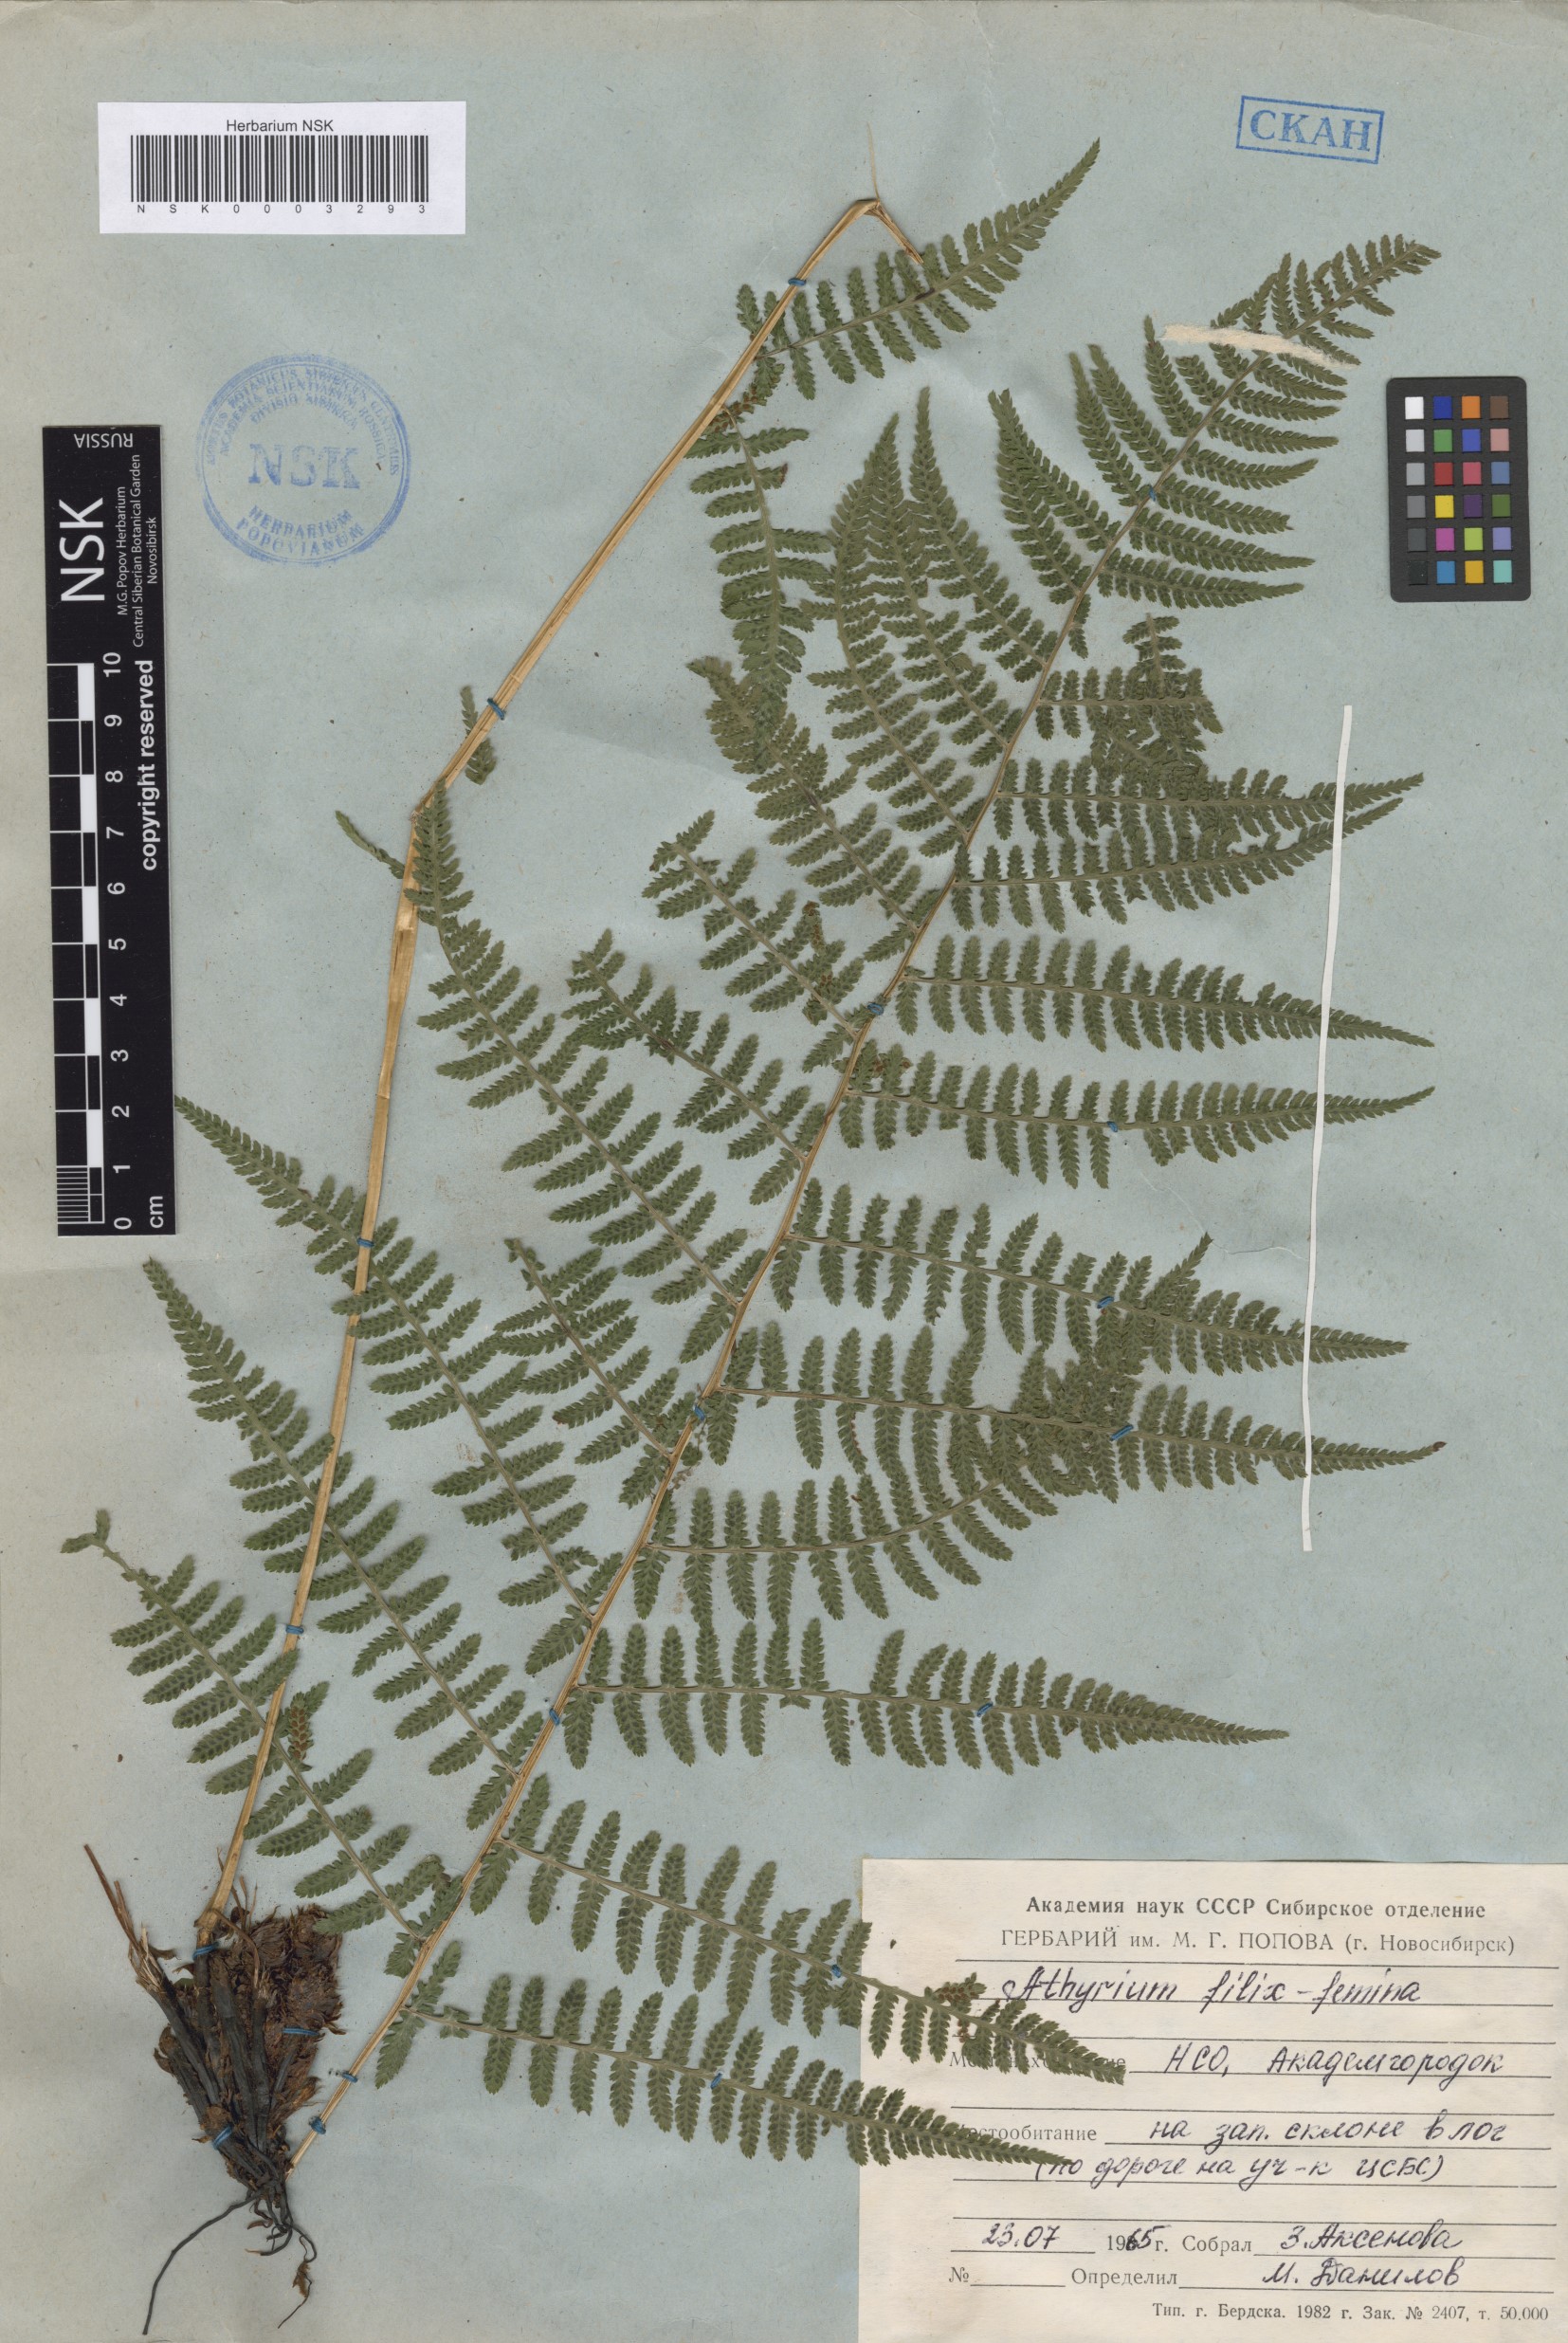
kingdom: Plantae
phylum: Tracheophyta
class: Polypodiopsida
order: Polypodiales
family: Athyriaceae
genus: Athyrium
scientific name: Athyrium filix-femina
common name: Lady fern
